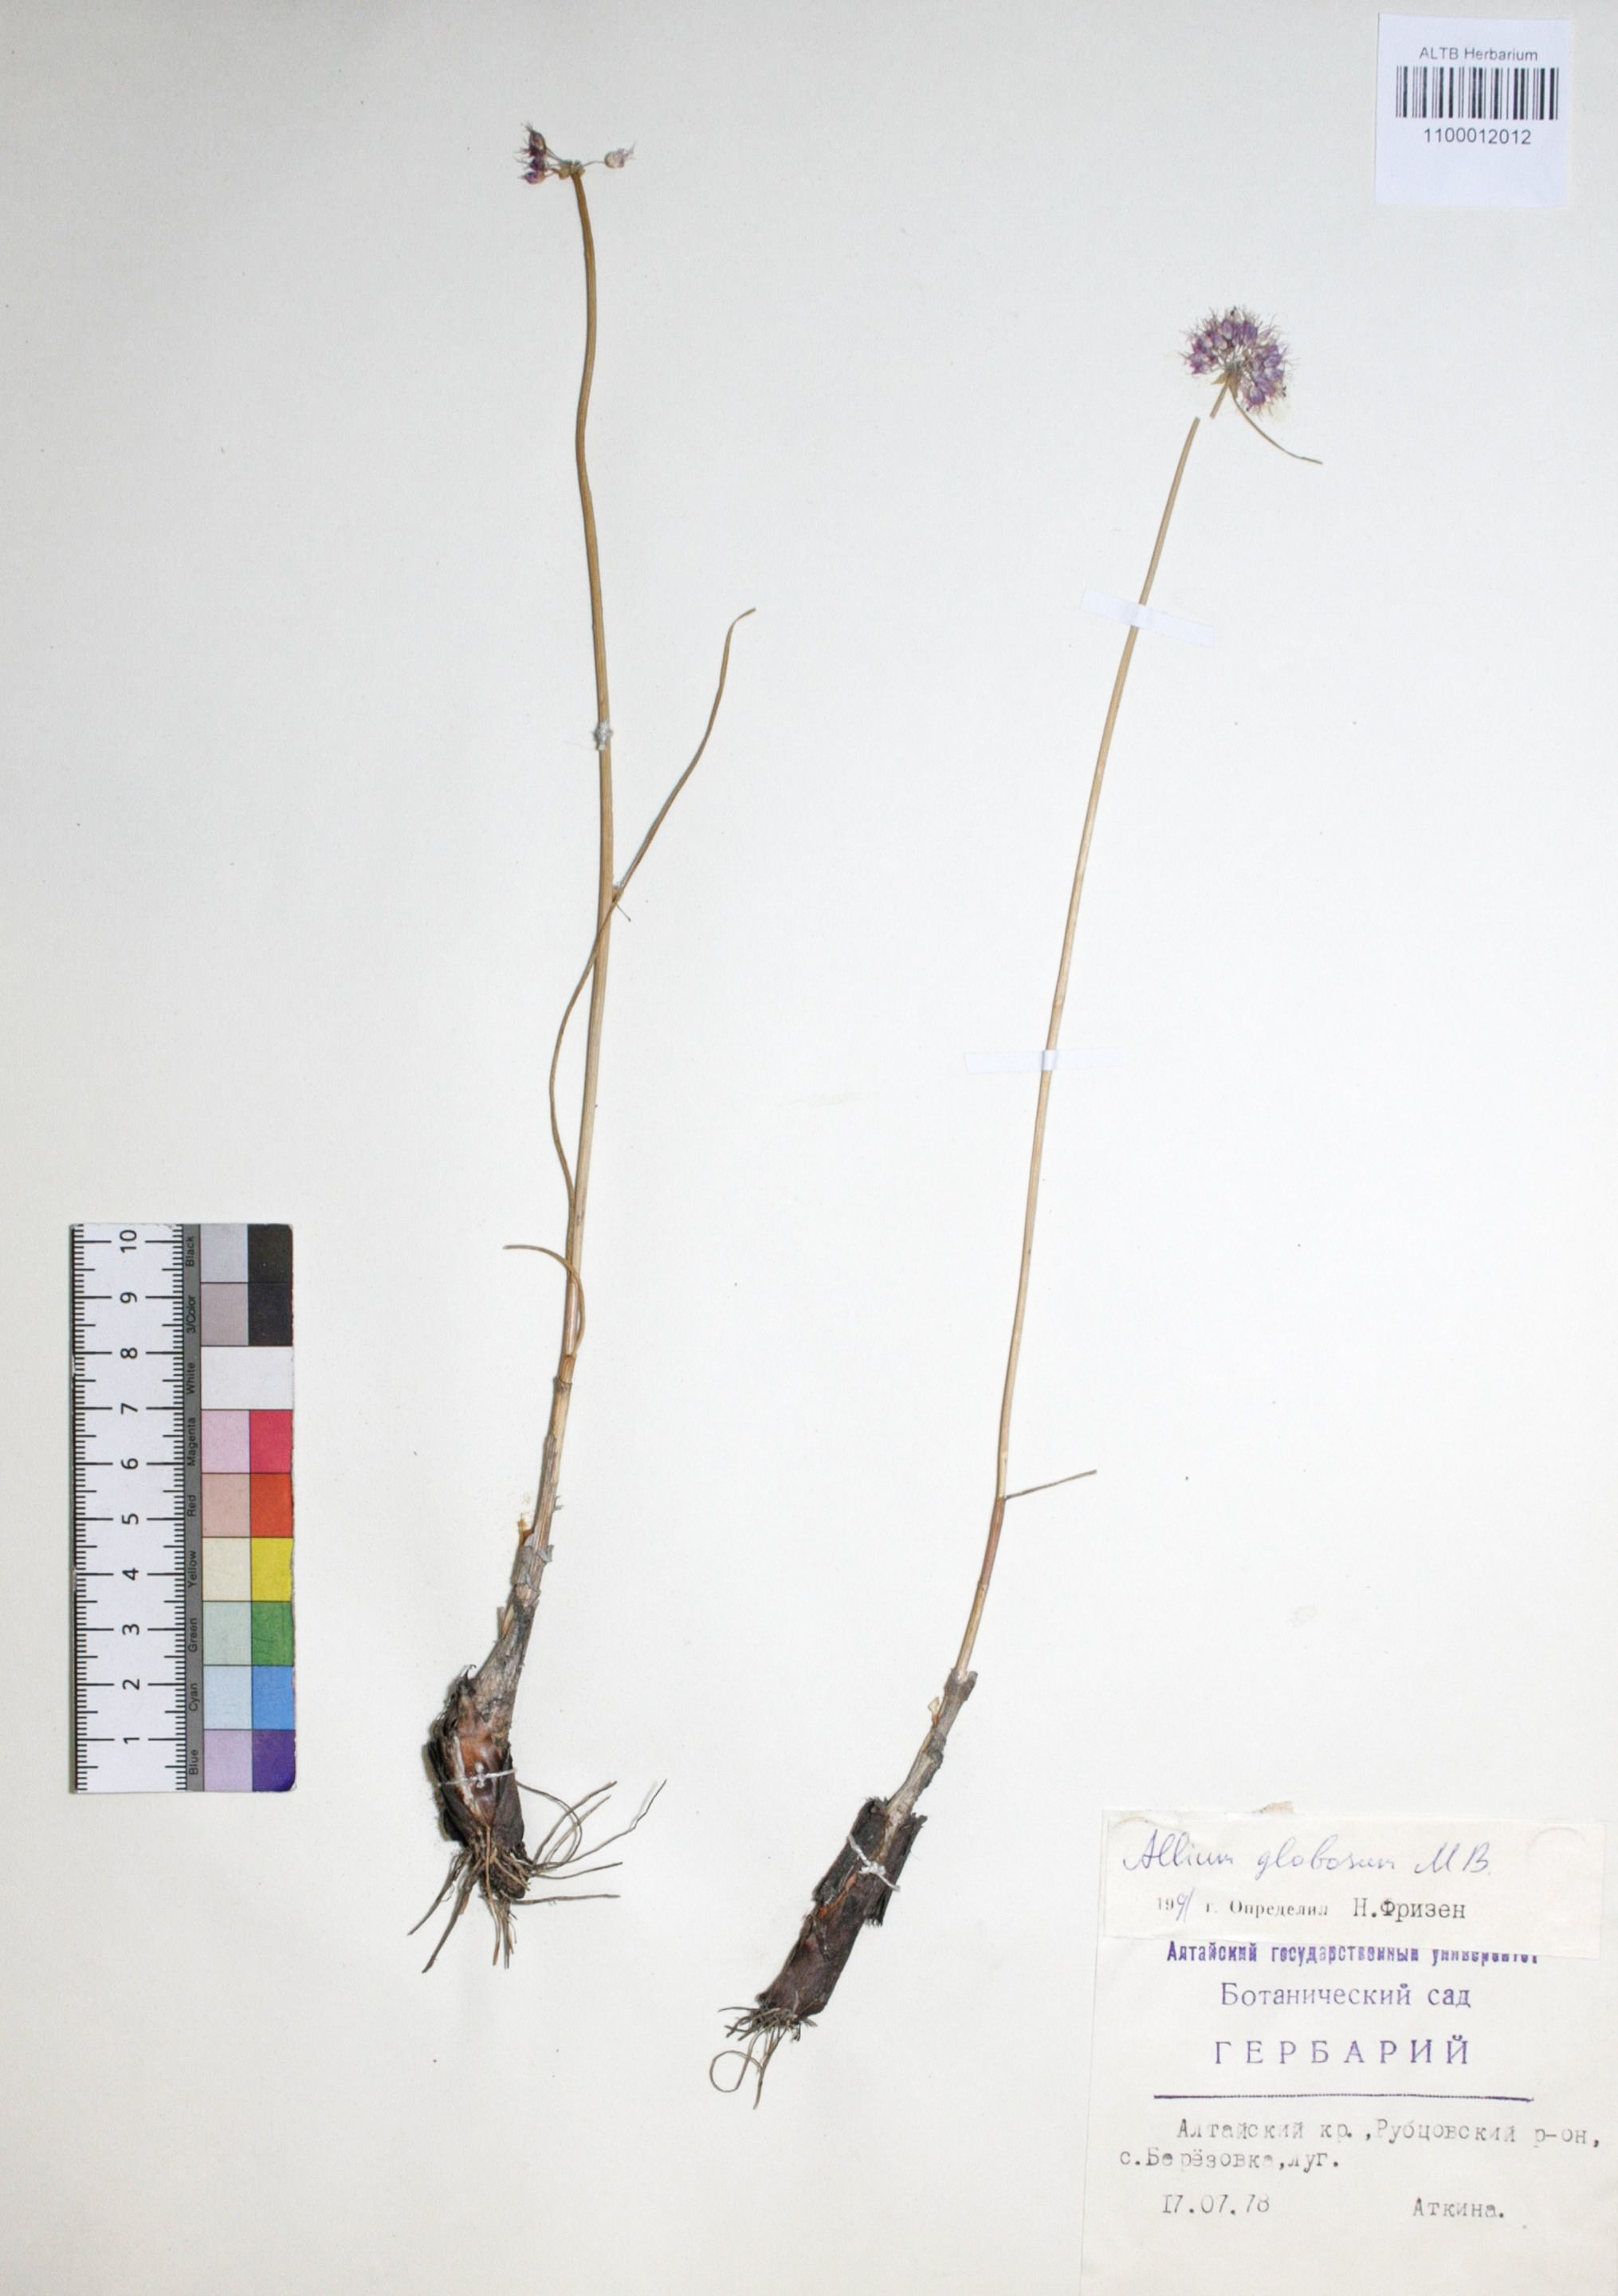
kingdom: Plantae
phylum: Tracheophyta
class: Liliopsida
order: Asparagales
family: Amaryllidaceae
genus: Allium
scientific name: Allium saxatile
